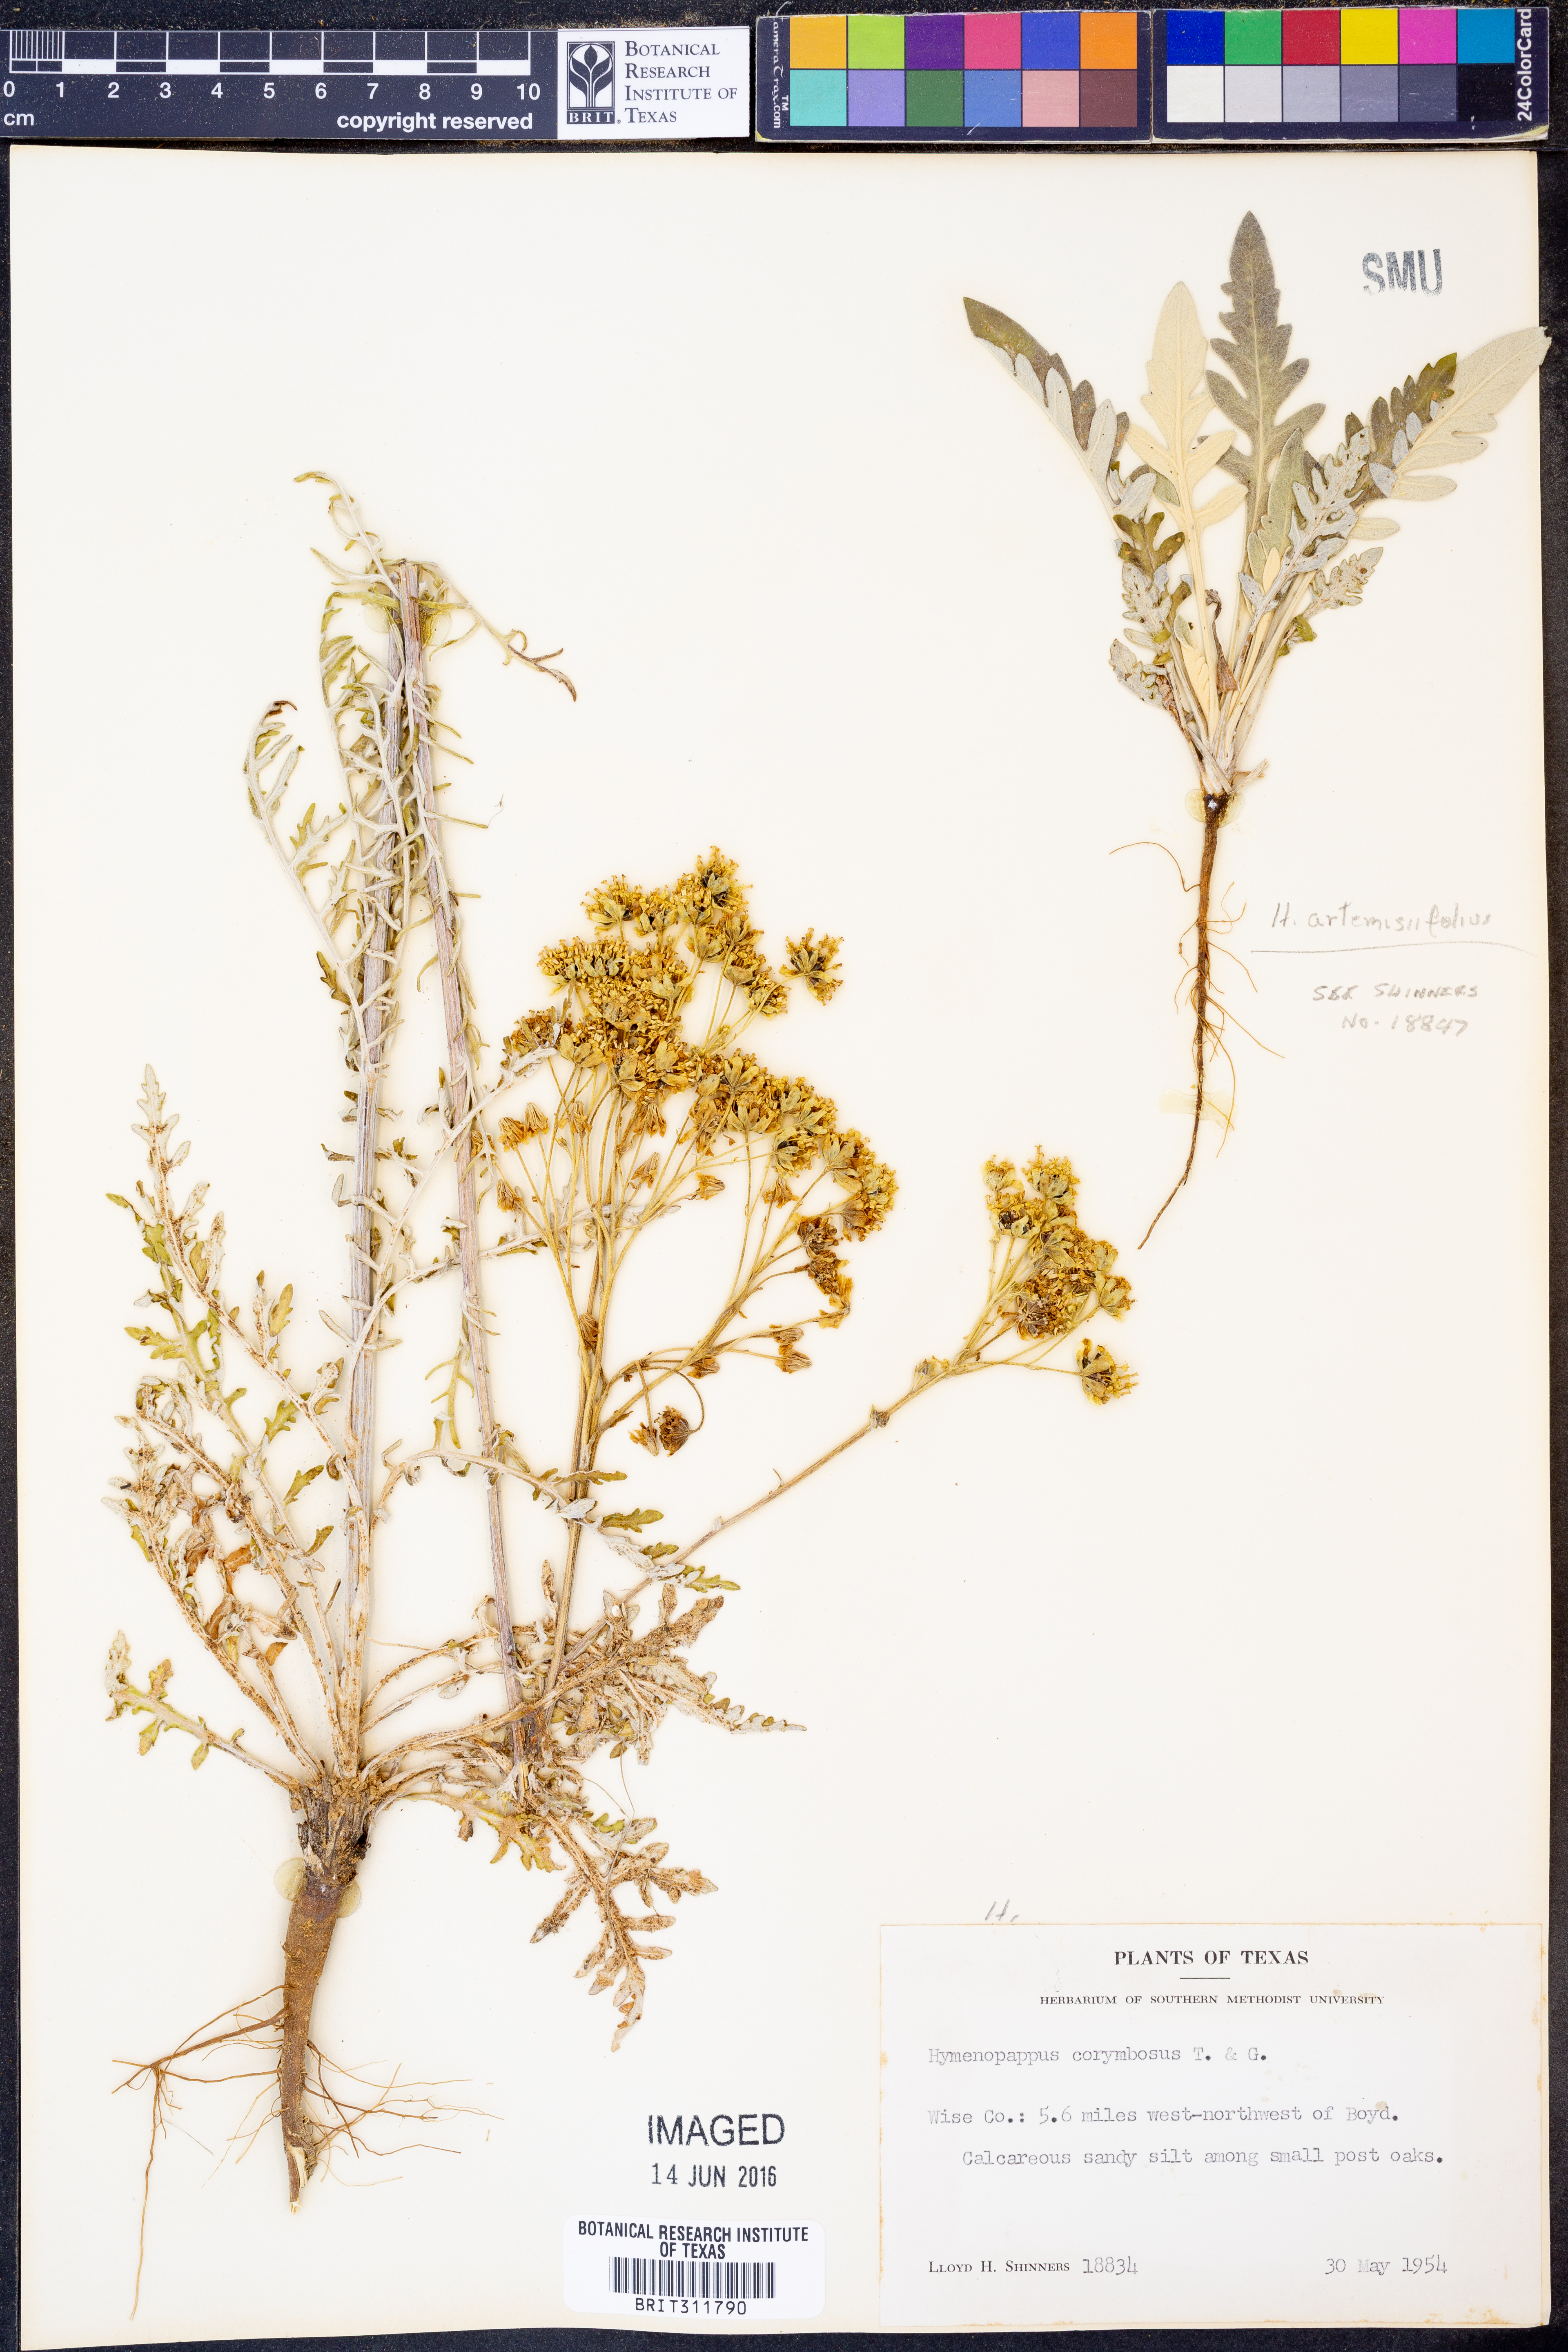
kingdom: Plantae
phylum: Tracheophyta
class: Magnoliopsida
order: Asterales
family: Asteraceae
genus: Hymenopappus
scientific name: Hymenopappus scabiosaeus
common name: Carolina woollywhite
